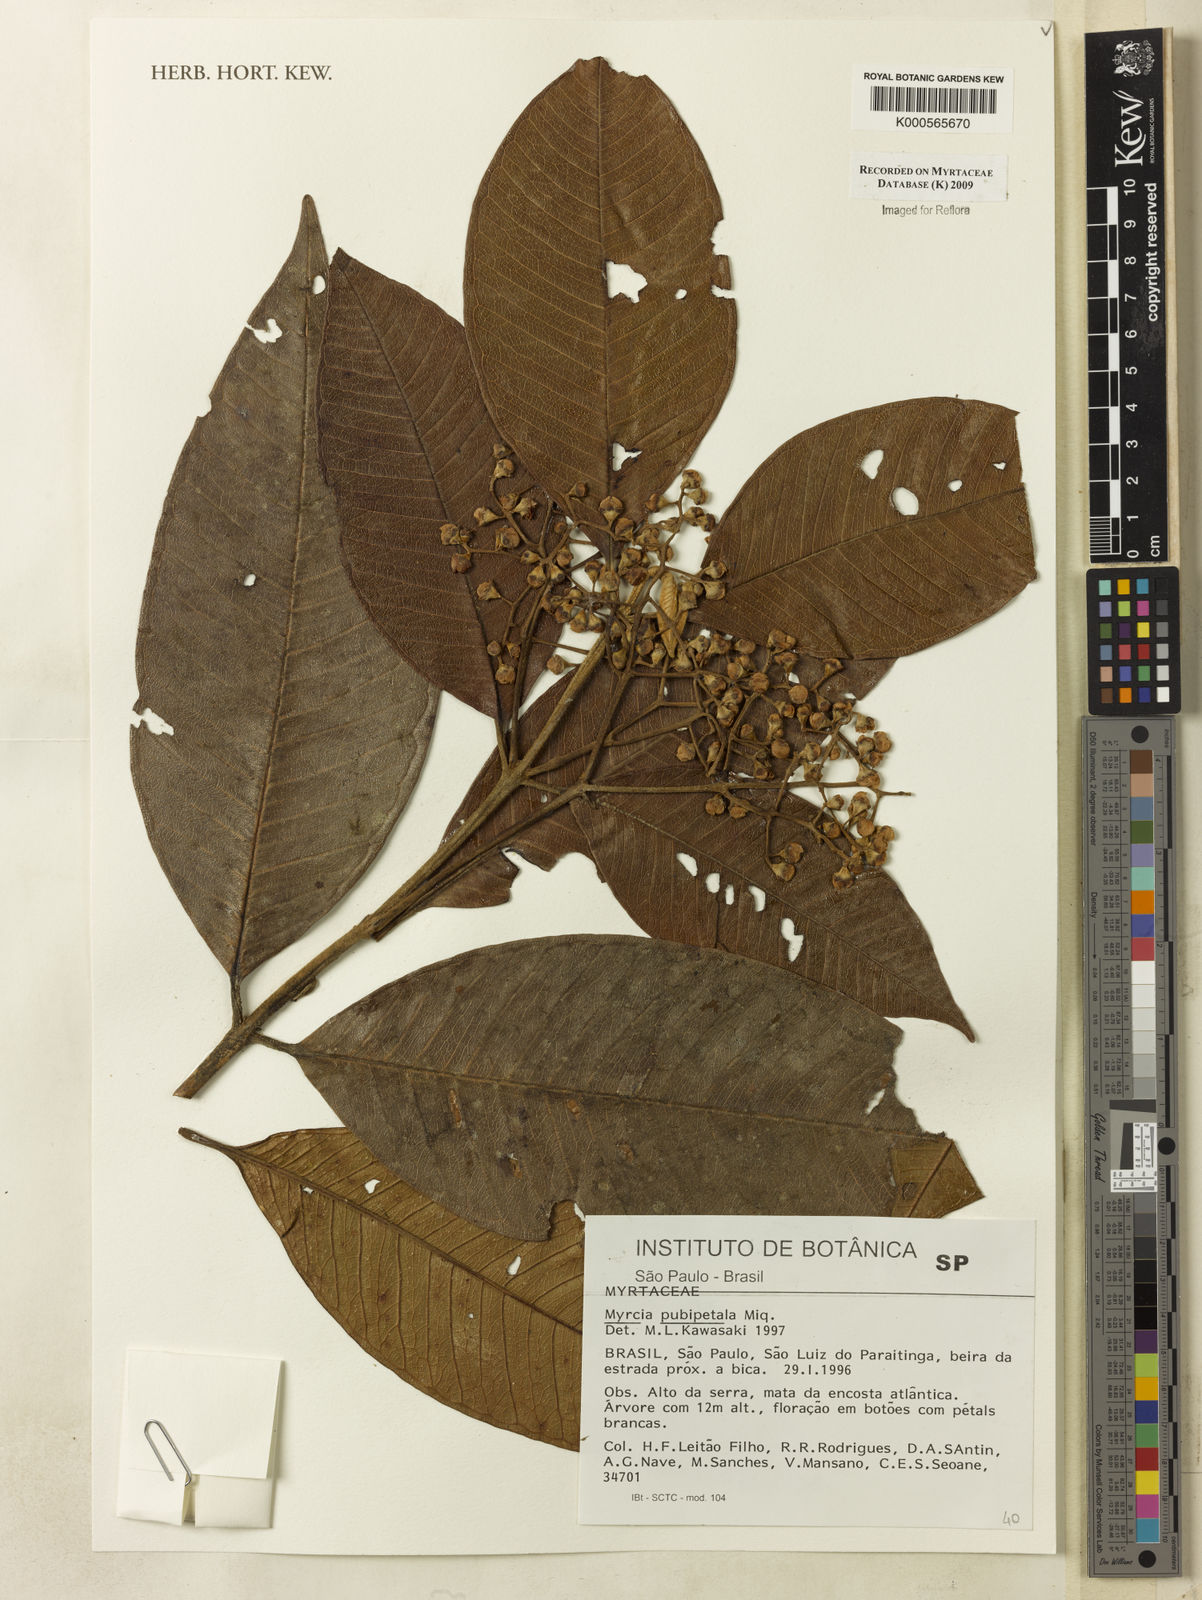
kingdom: Plantae
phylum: Tracheophyta
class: Magnoliopsida
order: Myrtales
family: Myrtaceae
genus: Myrcia
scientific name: Myrcia pubipetala
